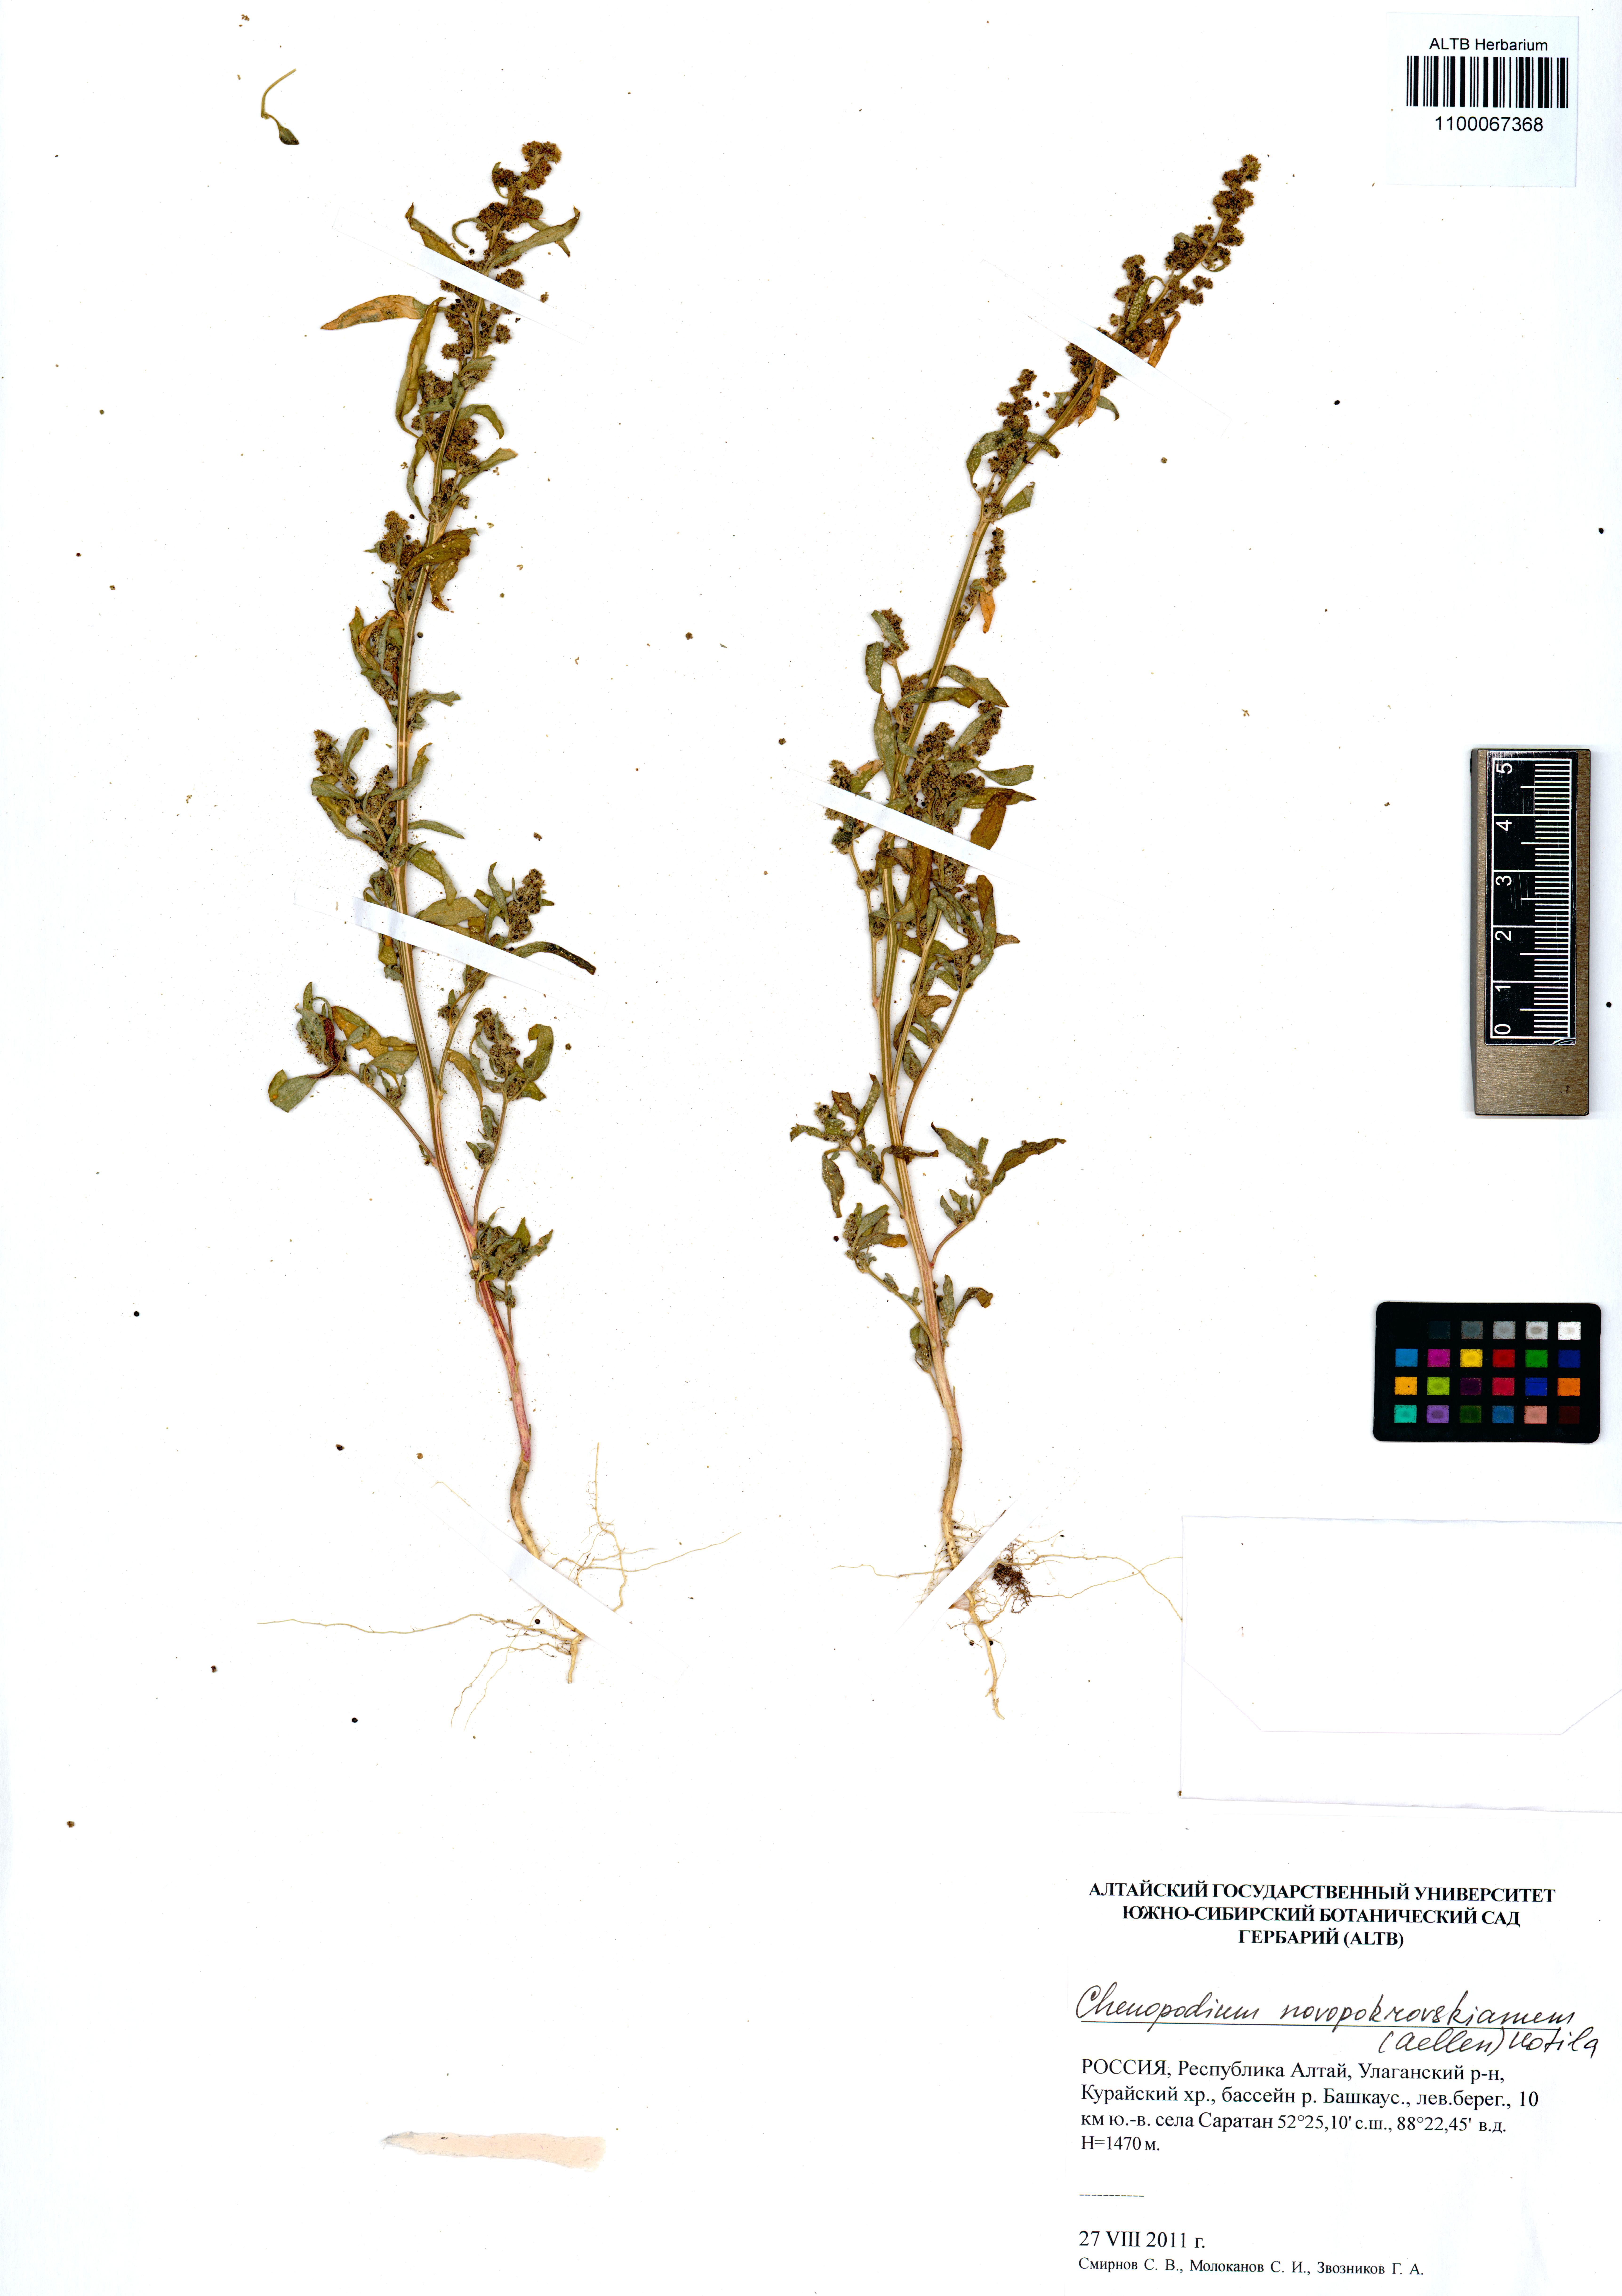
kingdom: Plantae
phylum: Tracheophyta
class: Magnoliopsida
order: Caryophyllales
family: Amaranthaceae
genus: Chenopodium
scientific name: Chenopodium novopokrovskyanum
